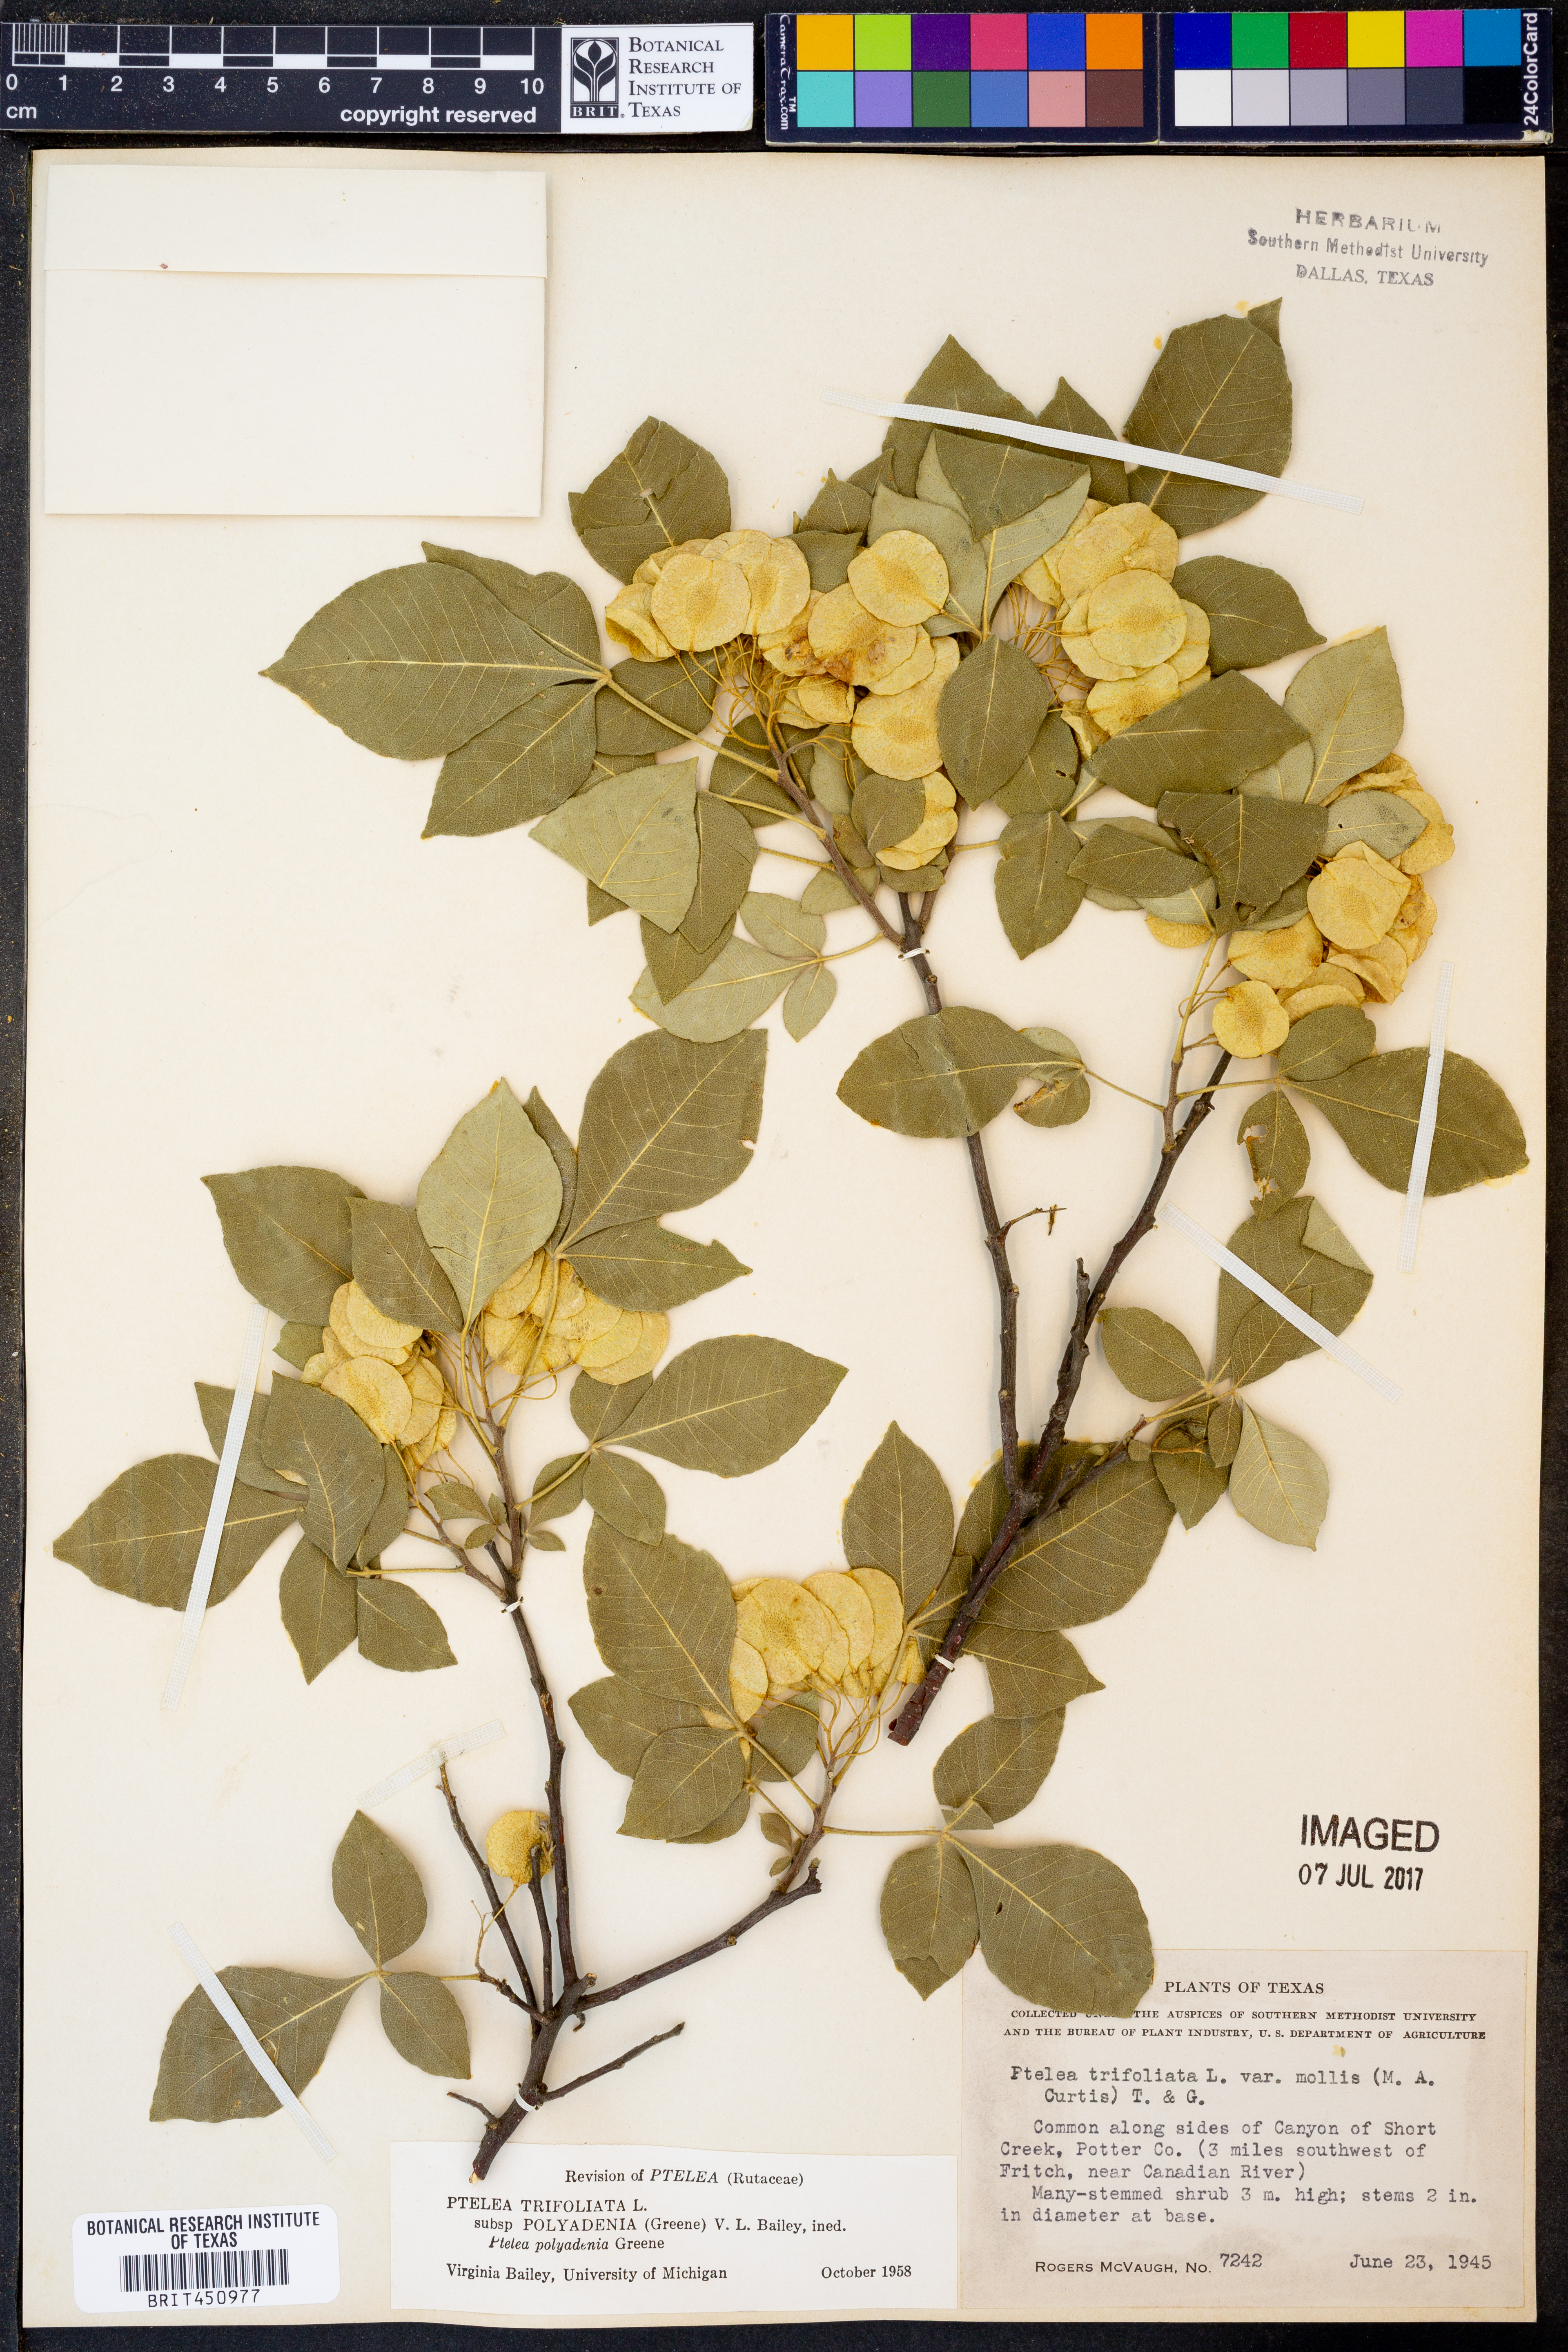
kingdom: Plantae
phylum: Tracheophyta
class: Magnoliopsida
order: Sapindales
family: Rutaceae
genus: Ptelea
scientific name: Ptelea trifoliata
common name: Common hop-tree
